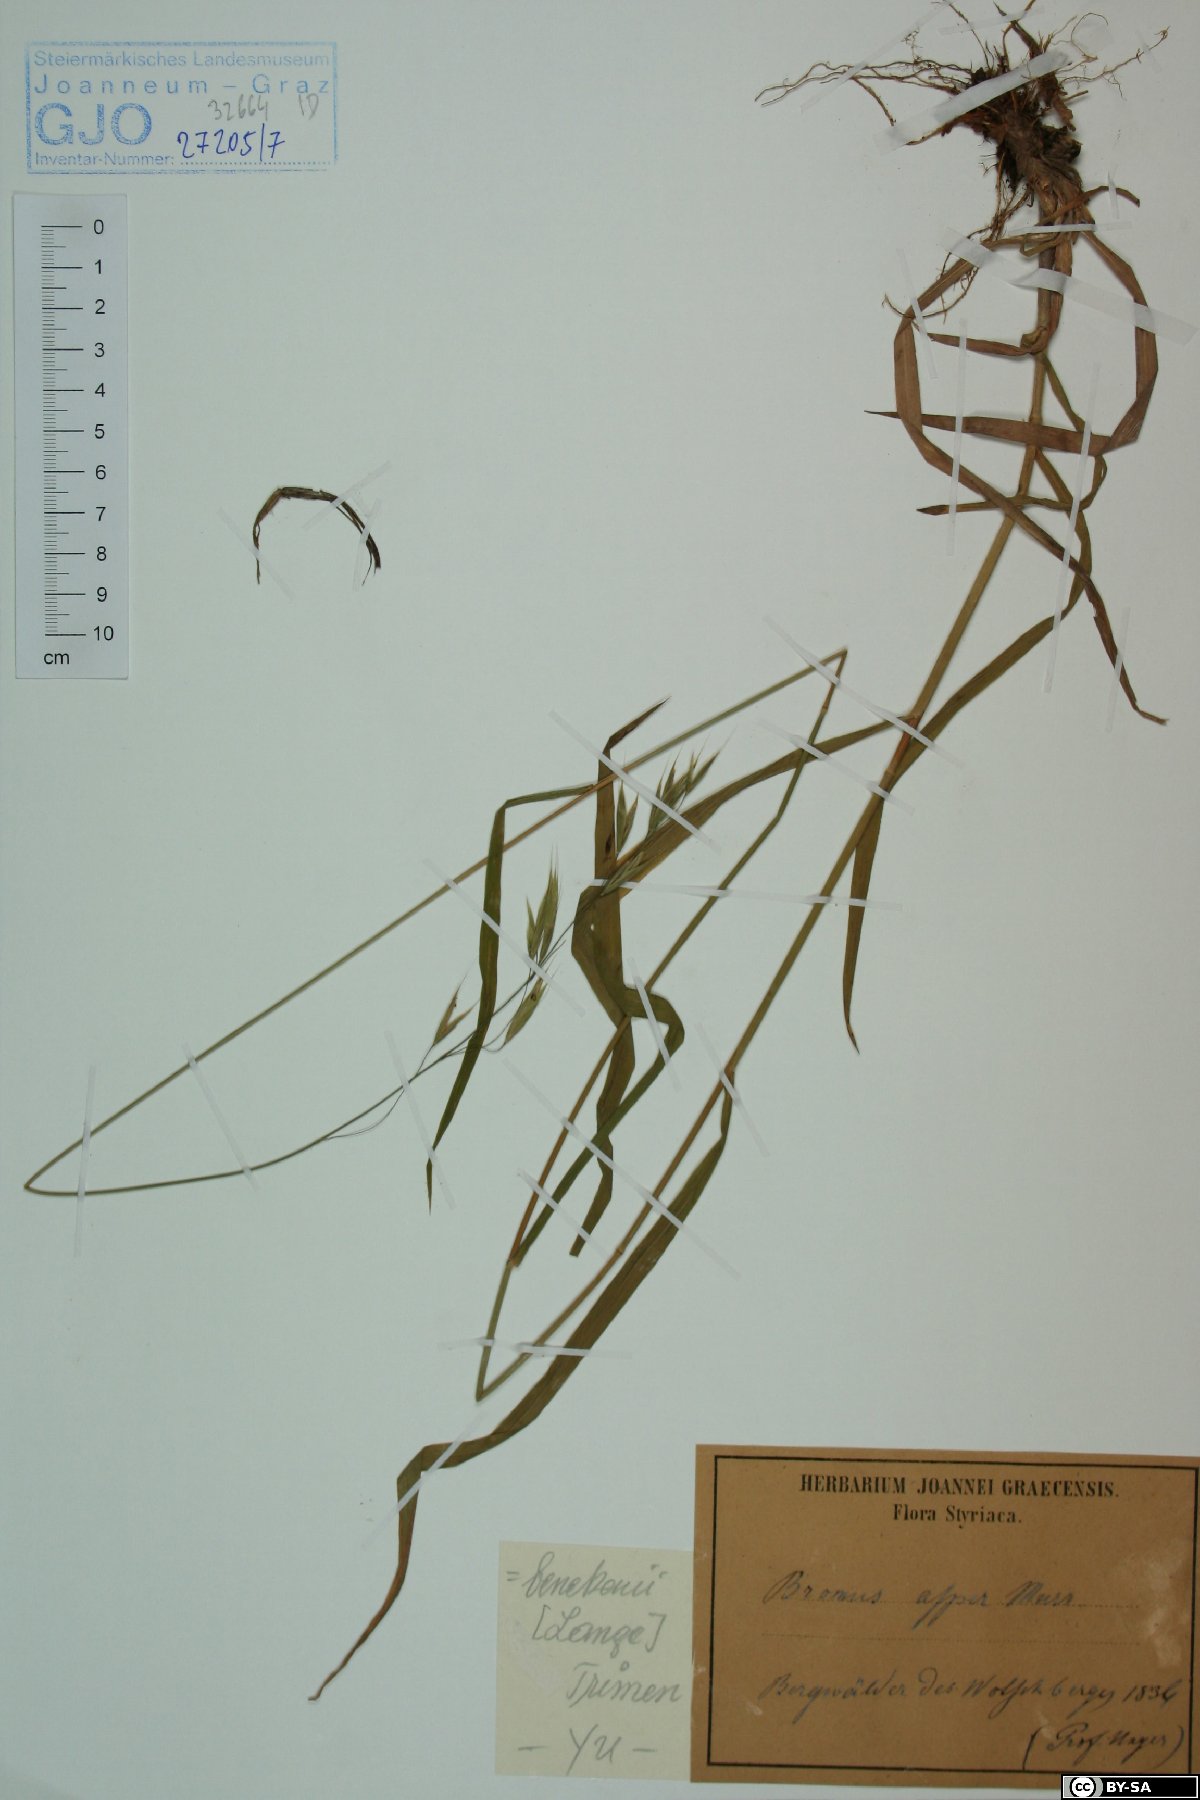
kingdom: Plantae
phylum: Tracheophyta
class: Liliopsida
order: Poales
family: Poaceae
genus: Bromus
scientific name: Bromus ramosus
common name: Hairy brome
